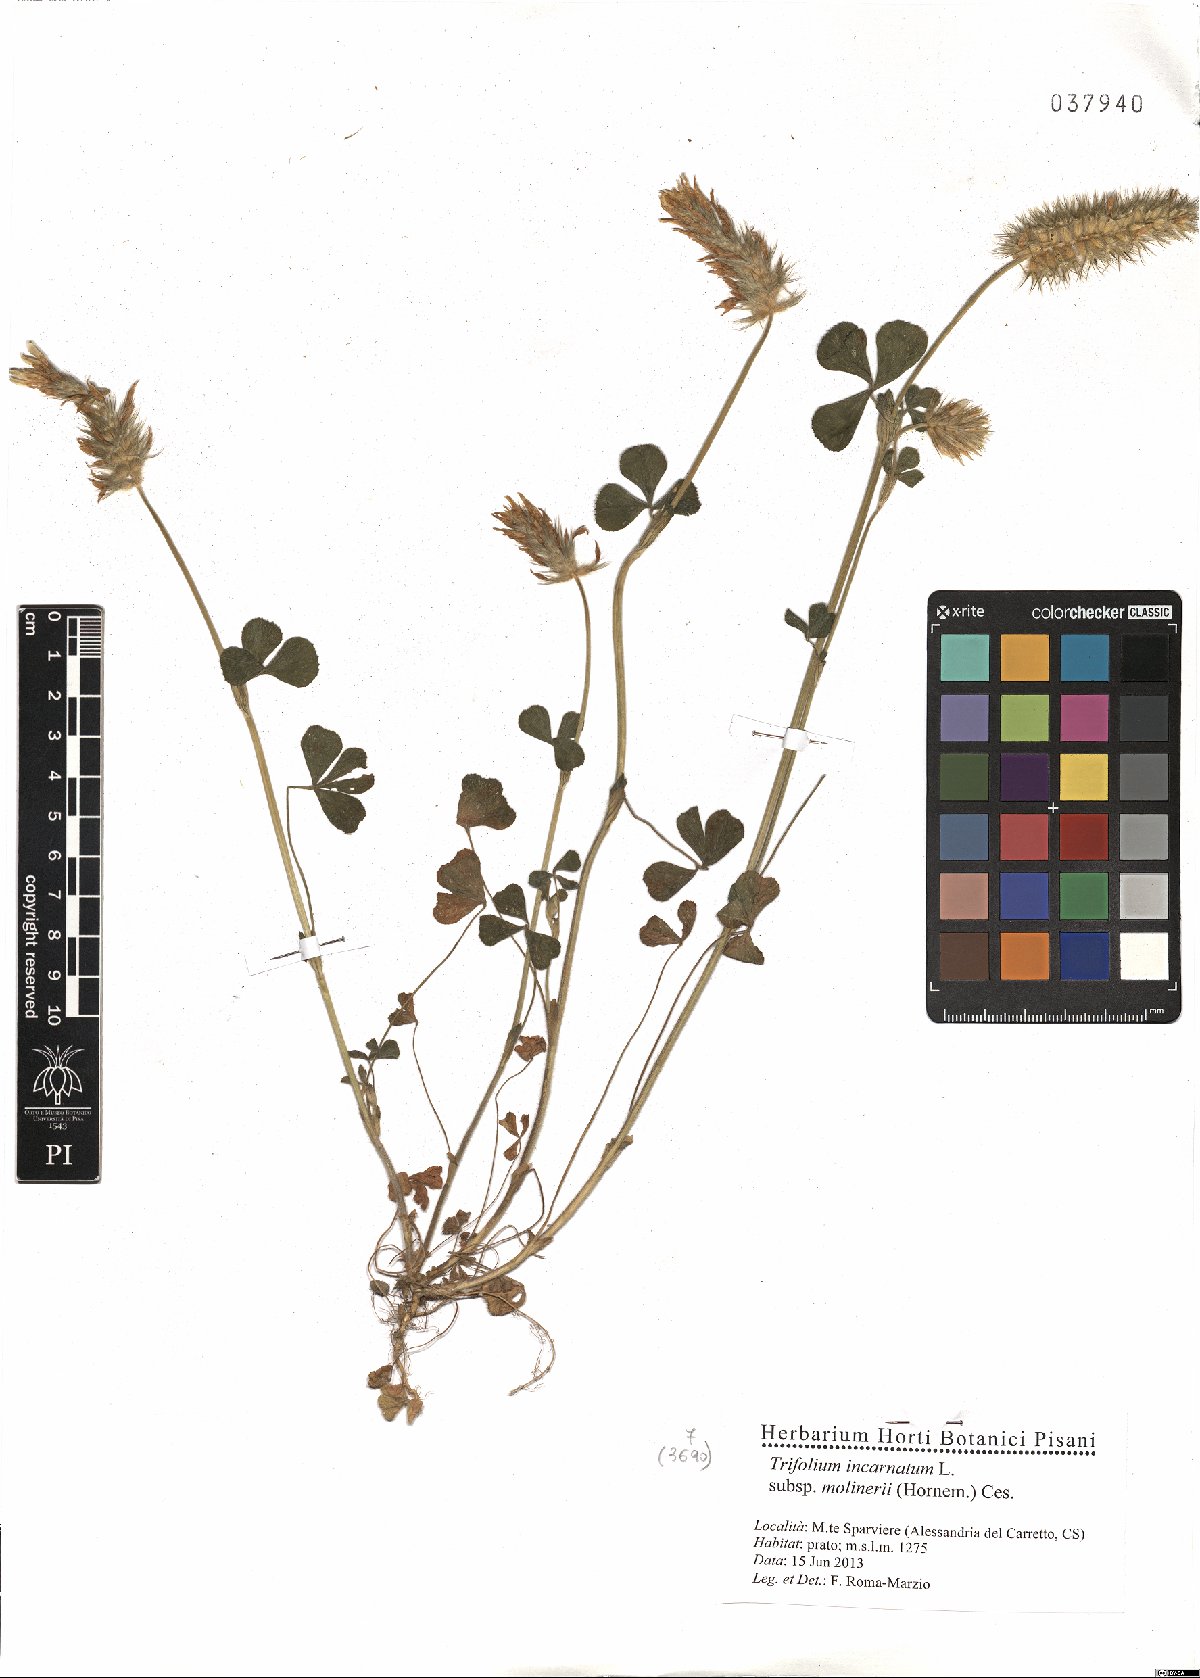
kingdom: Plantae
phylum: Tracheophyta
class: Magnoliopsida
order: Fabales
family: Fabaceae
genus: Trifolium
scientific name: Trifolium incarnatum
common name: Crimson clover
